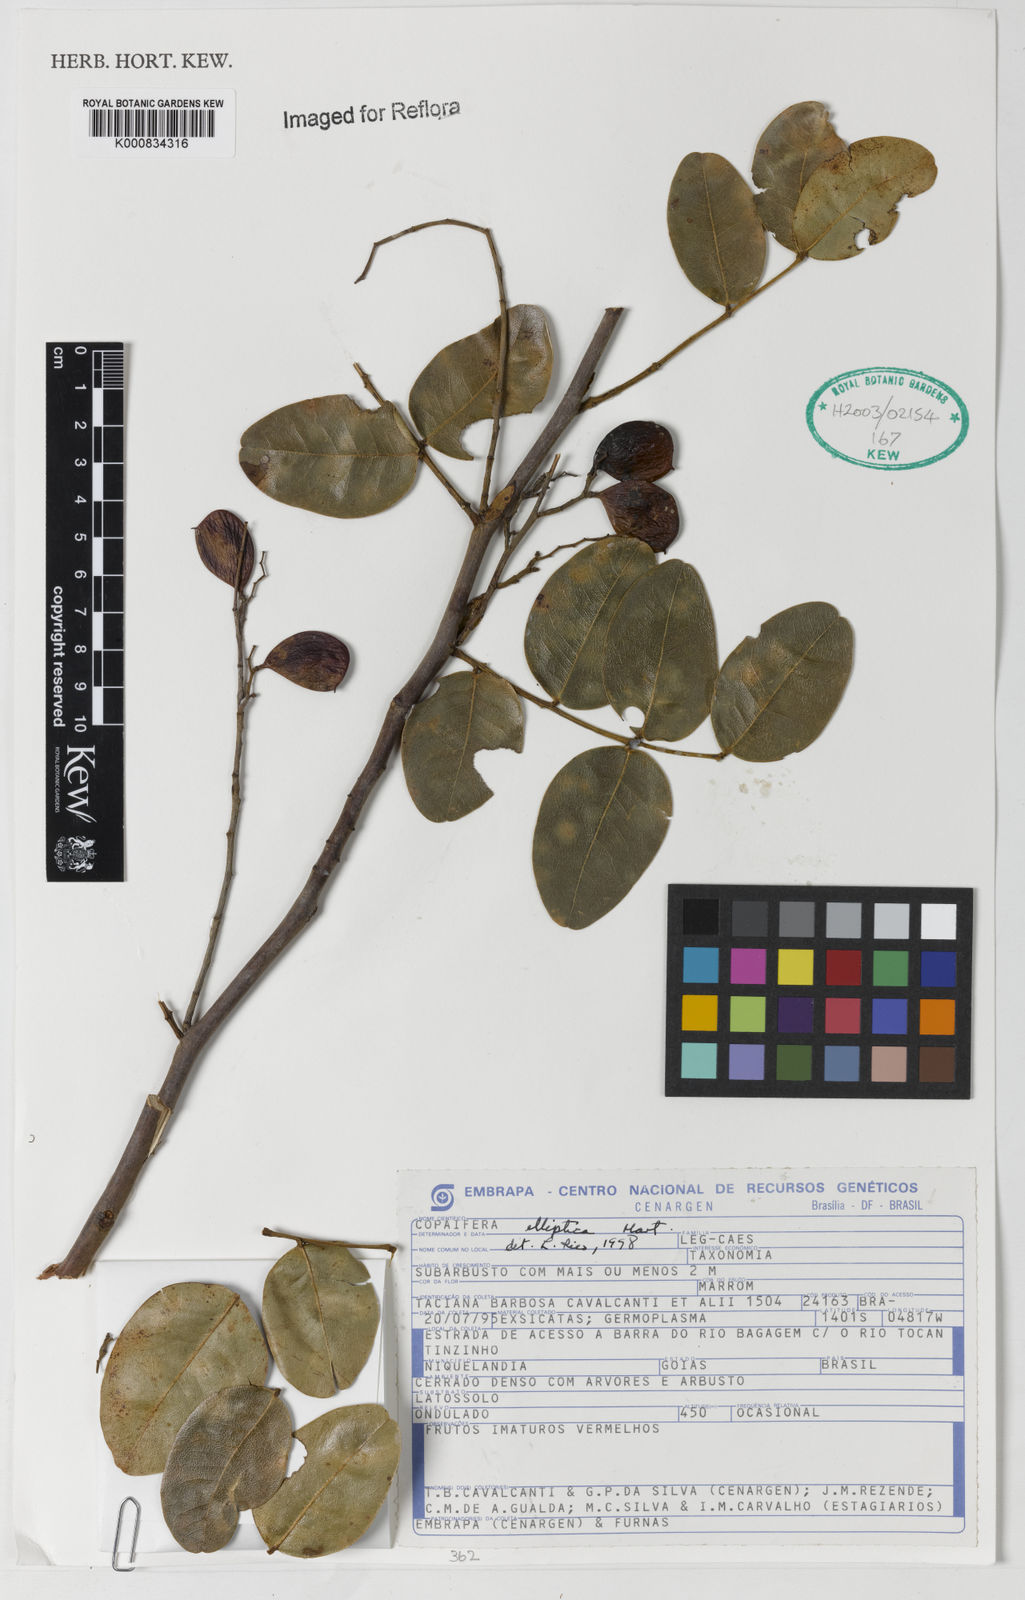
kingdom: Plantae
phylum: Tracheophyta
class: Magnoliopsida
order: Fabales
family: Fabaceae
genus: Copaifera
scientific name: Copaifera elliptica
